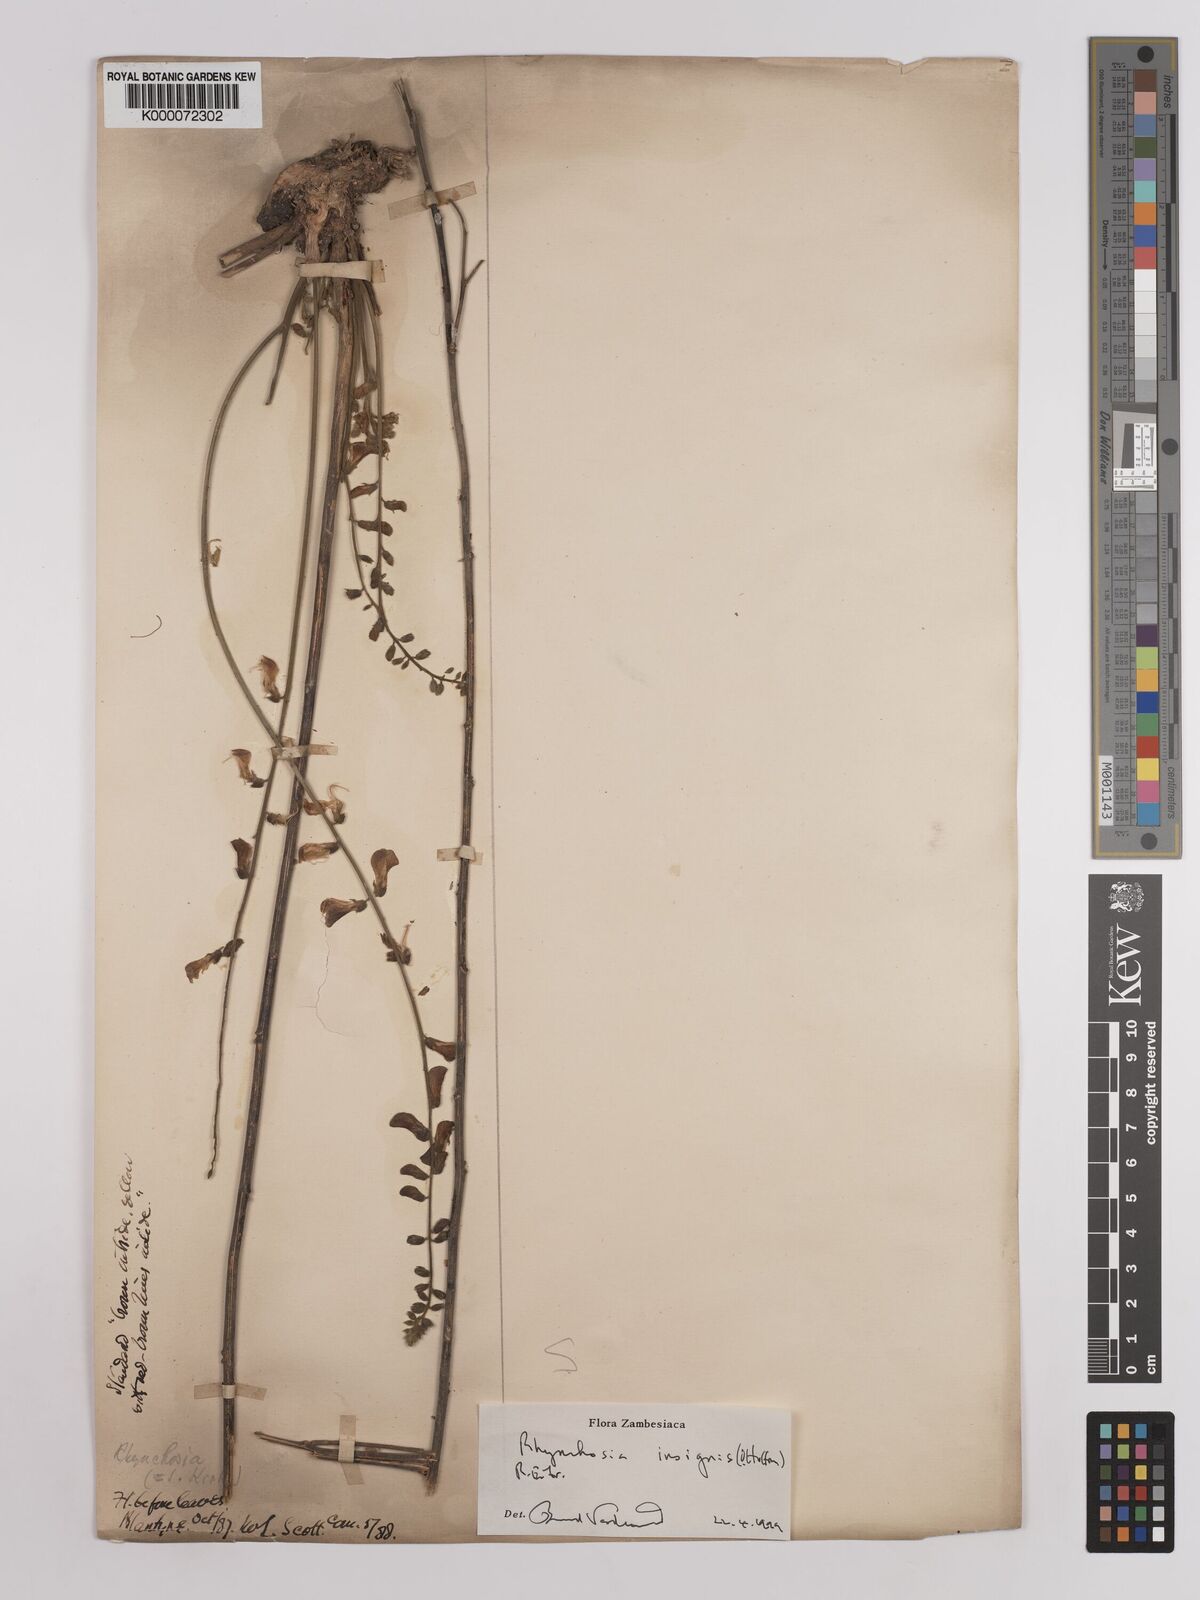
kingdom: Plantae
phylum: Tracheophyta
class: Liliopsida
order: Asparagales
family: Orchidaceae
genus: Specklinia
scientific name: Specklinia costaricensis
